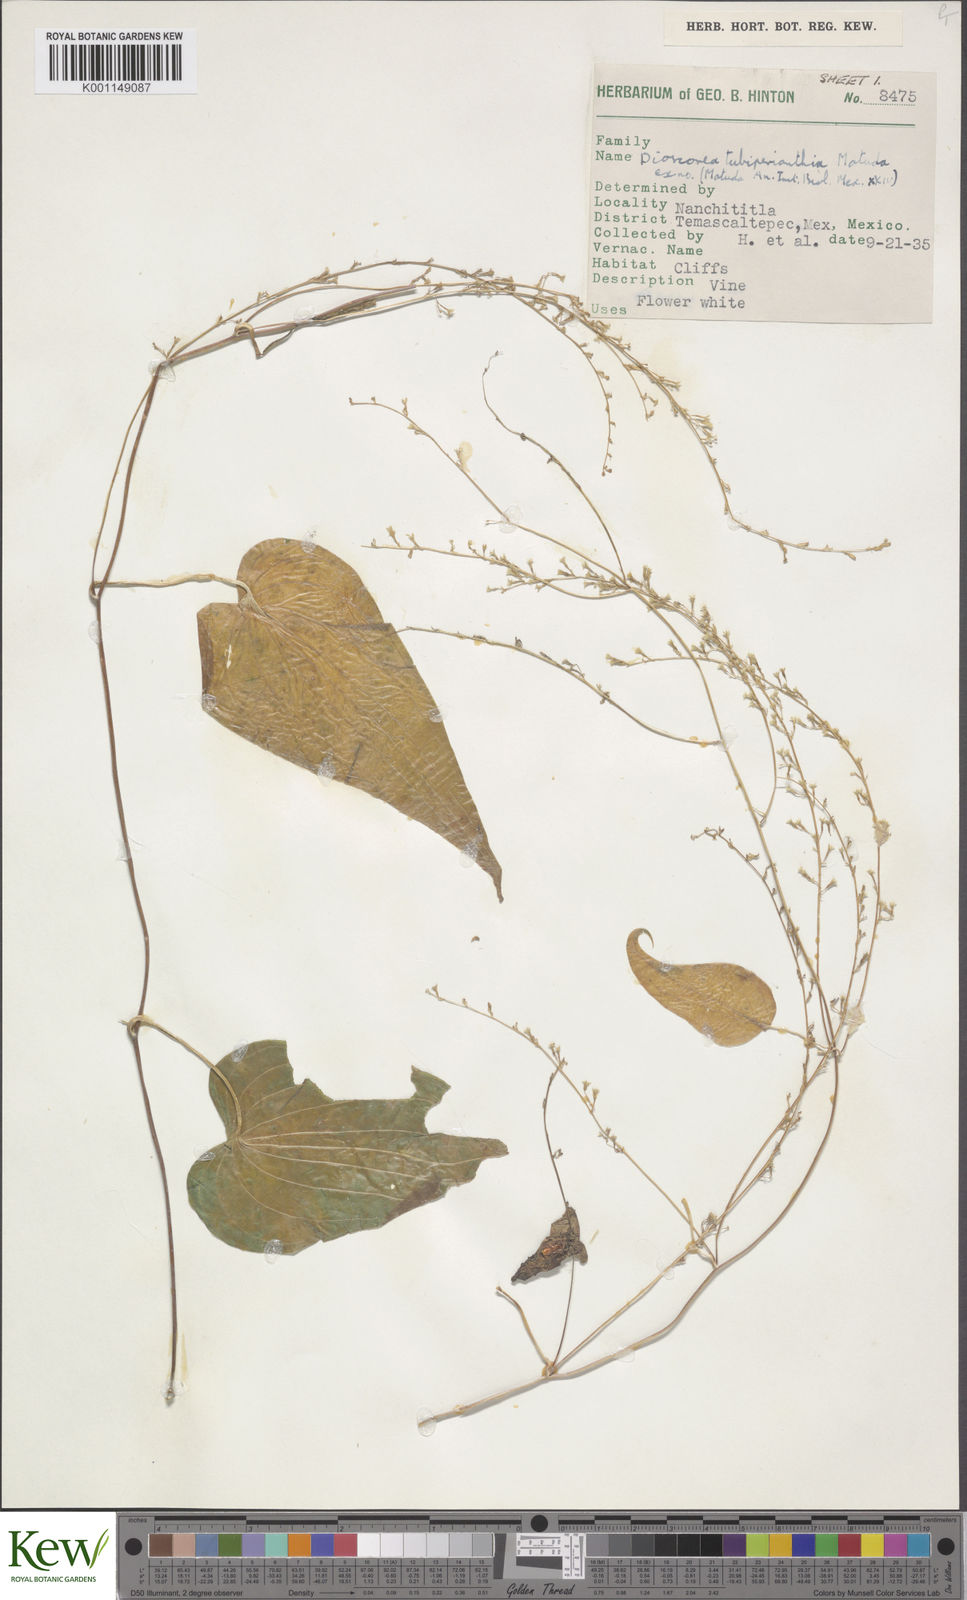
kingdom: Plantae
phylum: Tracheophyta
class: Liliopsida
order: Dioscoreales
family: Dioscoreaceae
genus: Dioscorea
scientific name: Dioscorea tubiperianthia
